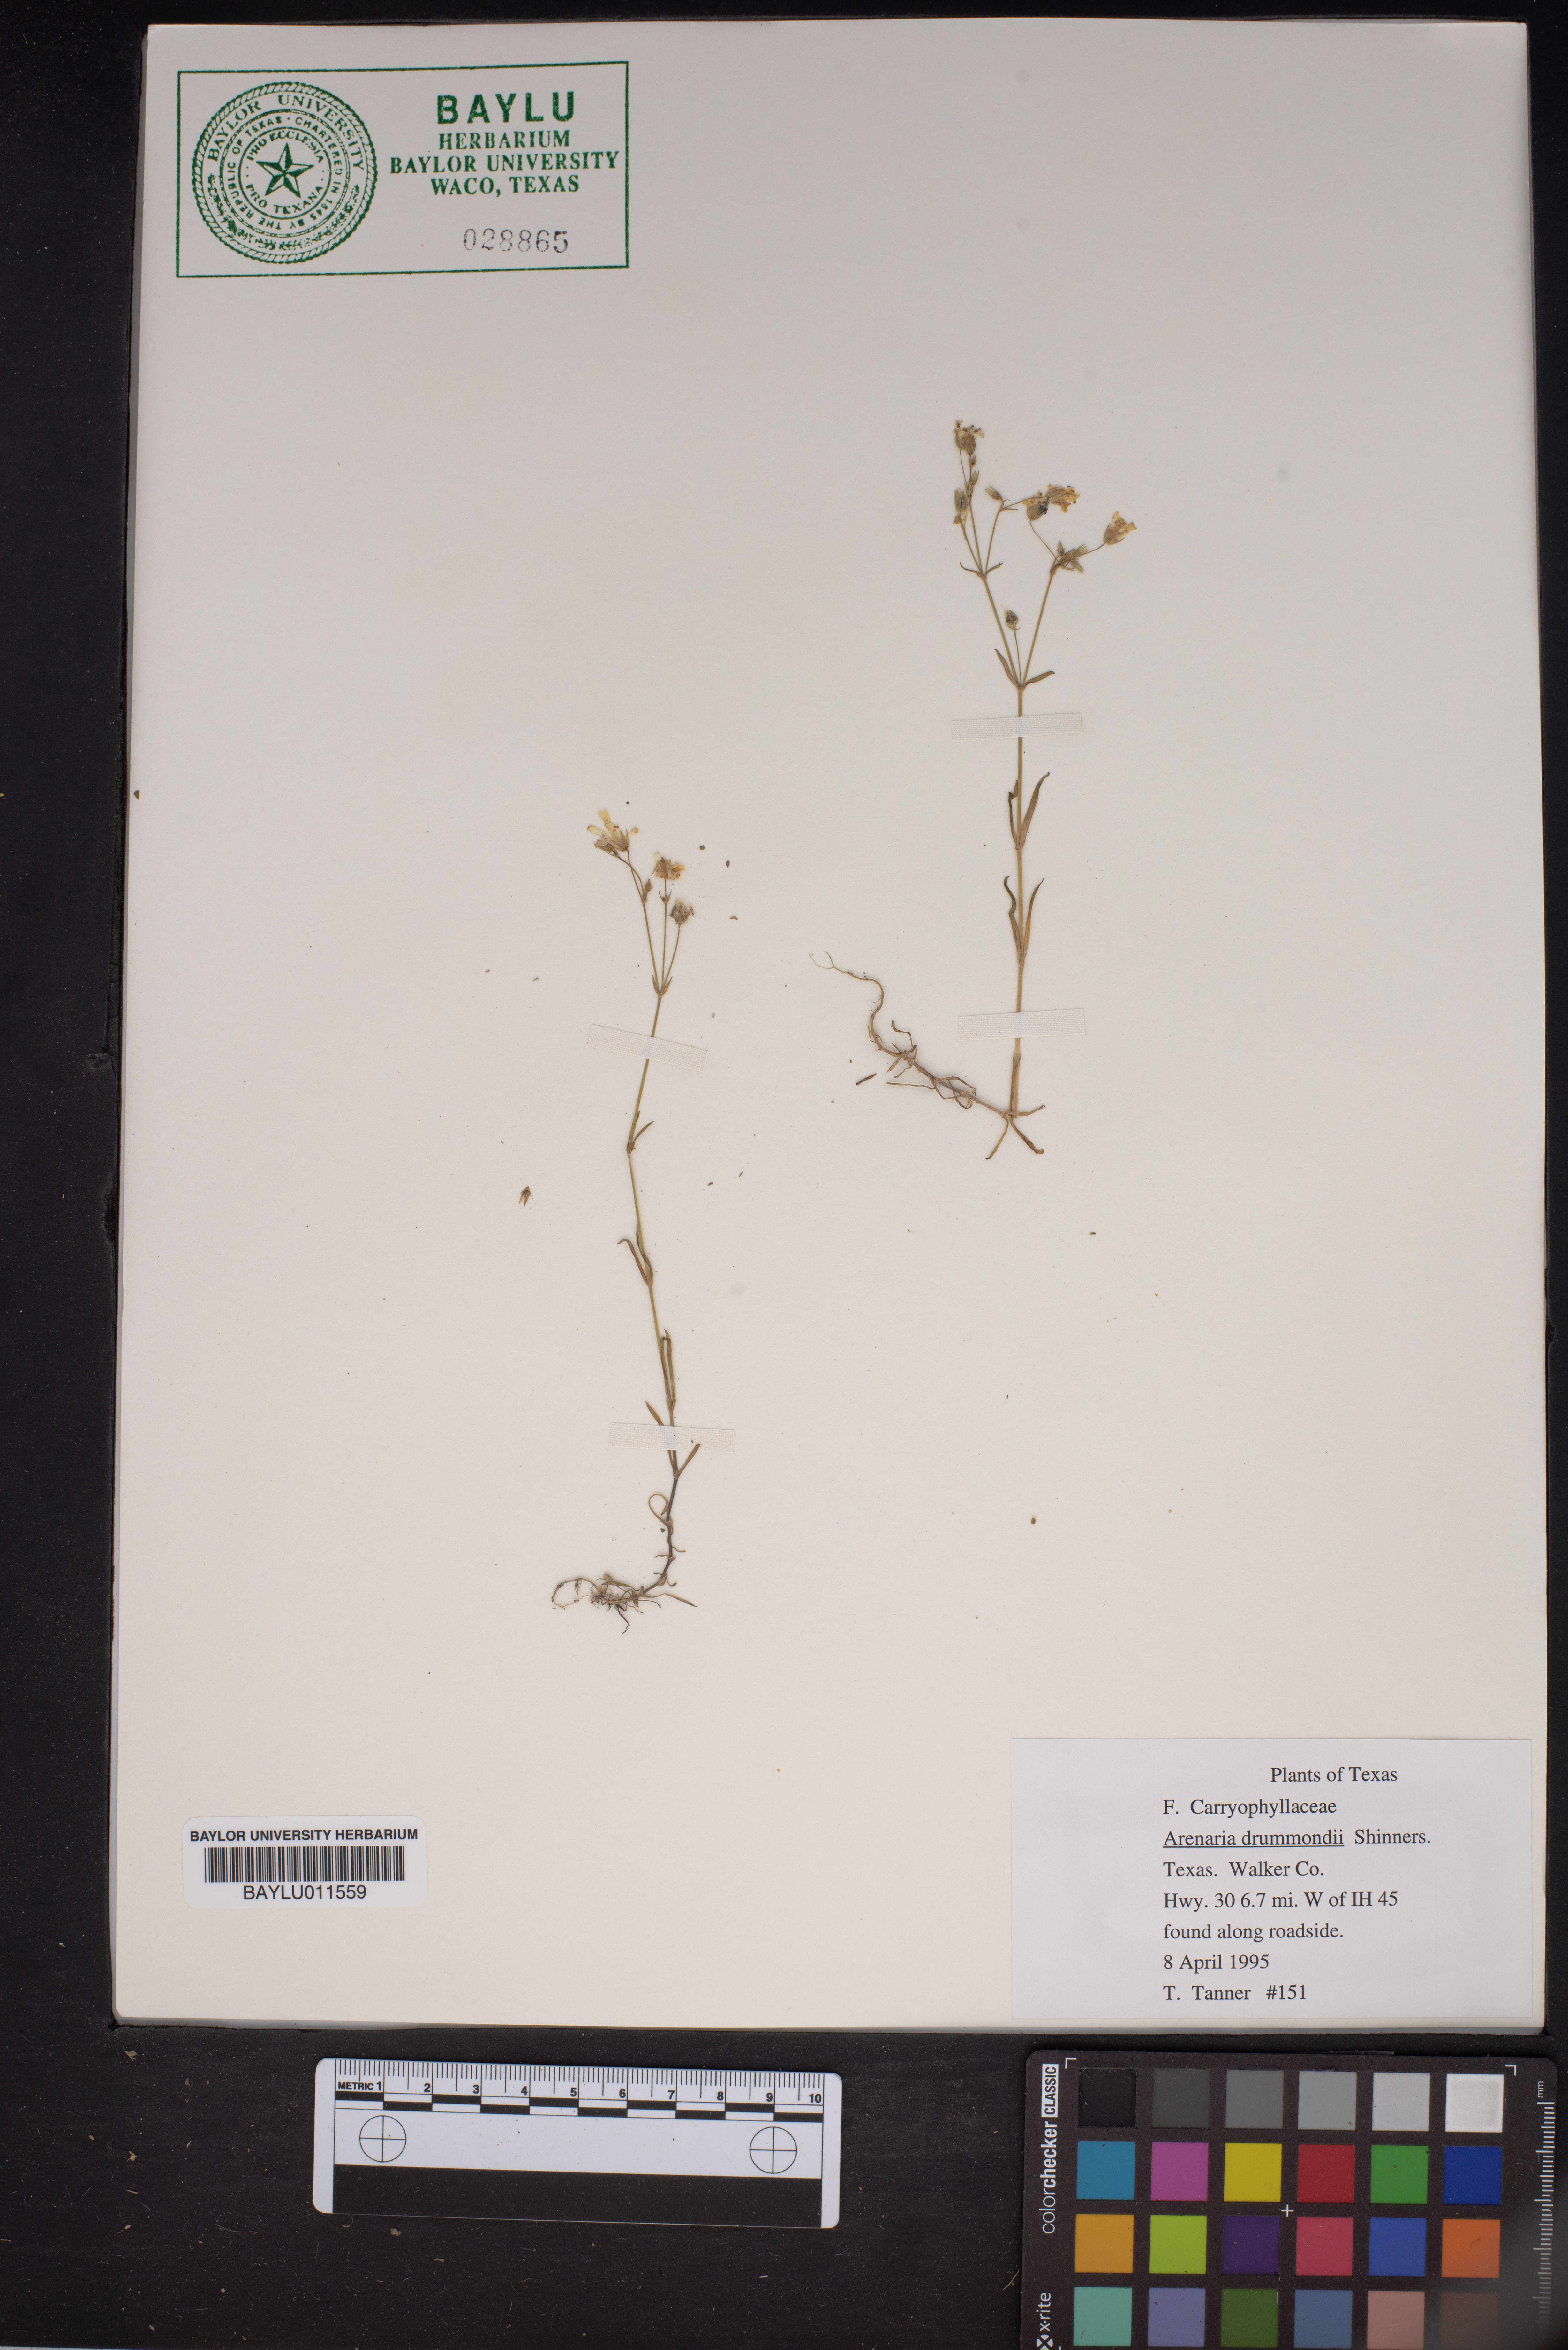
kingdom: Plantae
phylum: Tracheophyta
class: Magnoliopsida
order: Caryophyllales
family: Caryophyllaceae
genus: Geocarpon
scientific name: Geocarpon nuttallii
